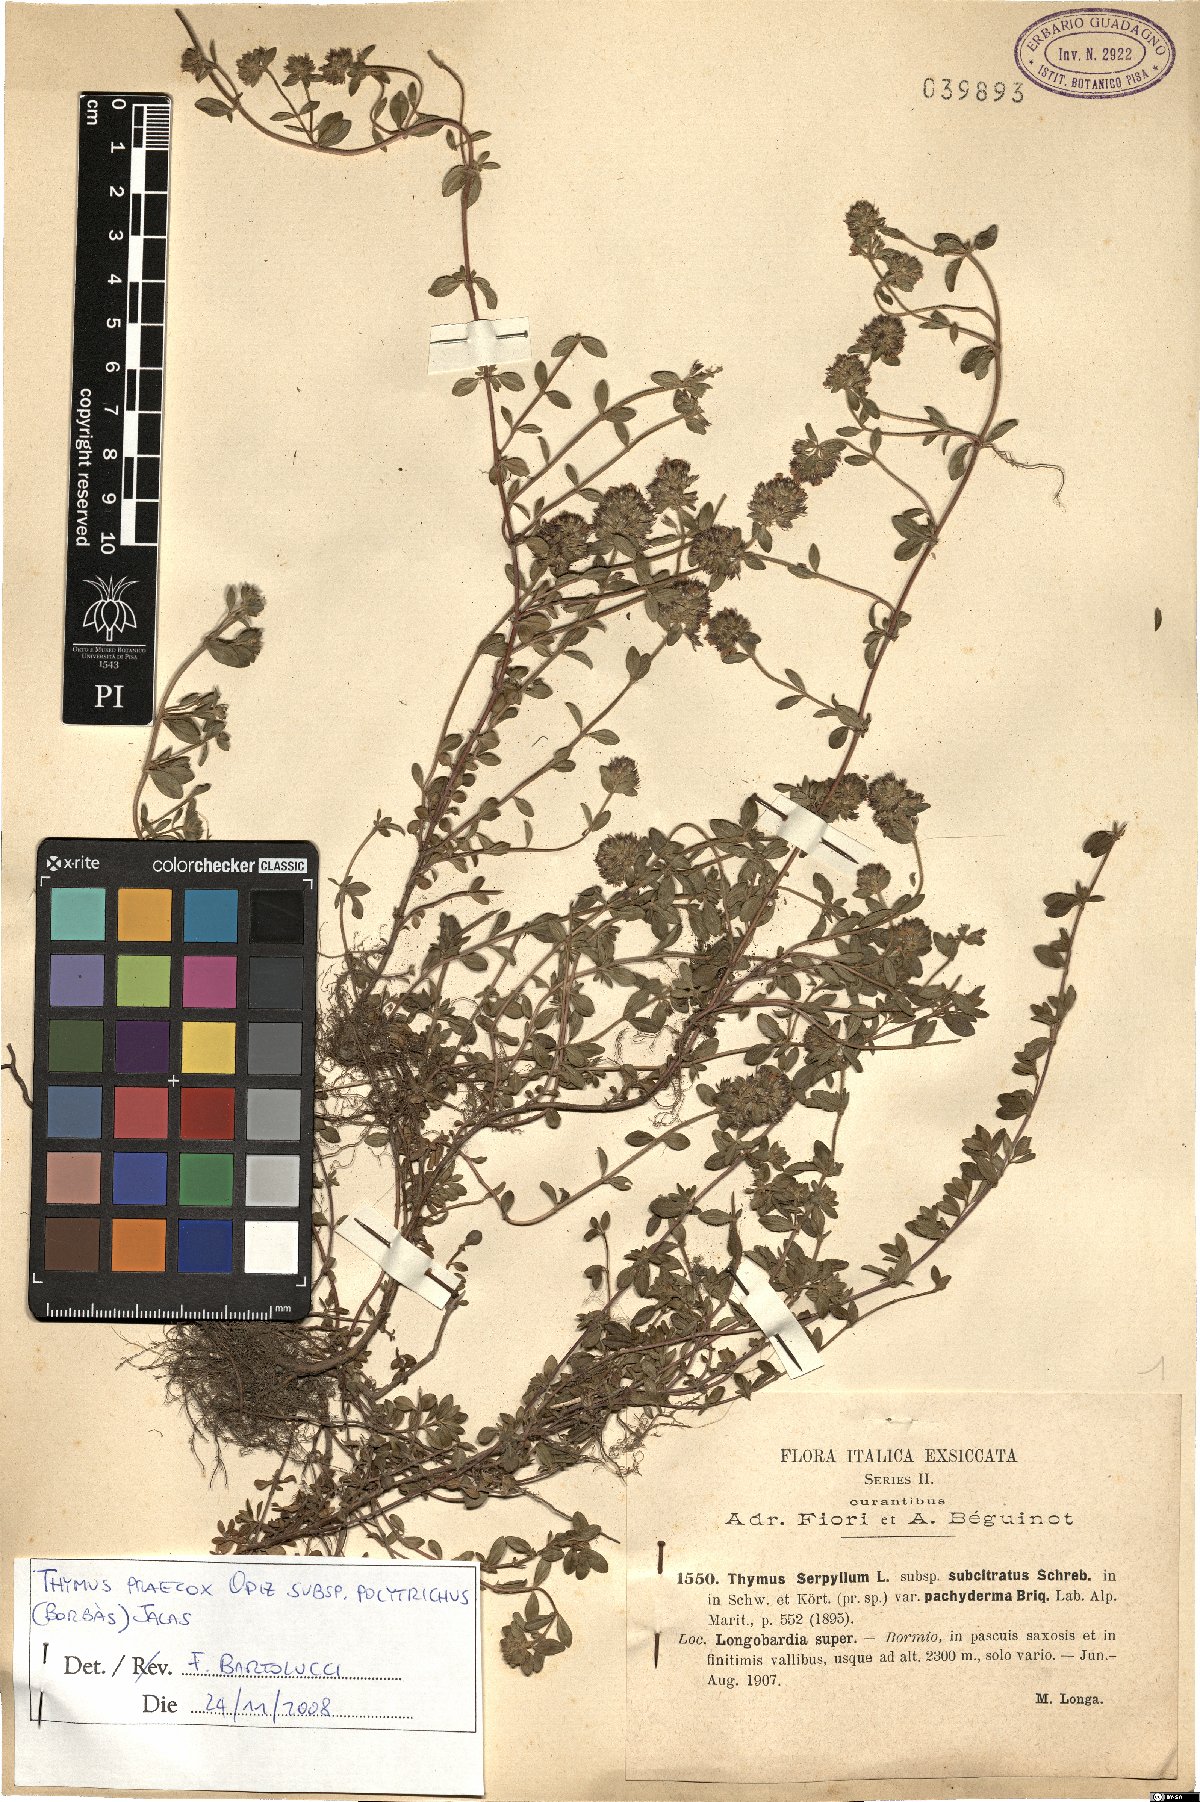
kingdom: Plantae
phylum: Tracheophyta
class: Magnoliopsida
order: Lamiales
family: Lamiaceae
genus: Thymus
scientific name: Thymus praecox
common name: Wild thyme
